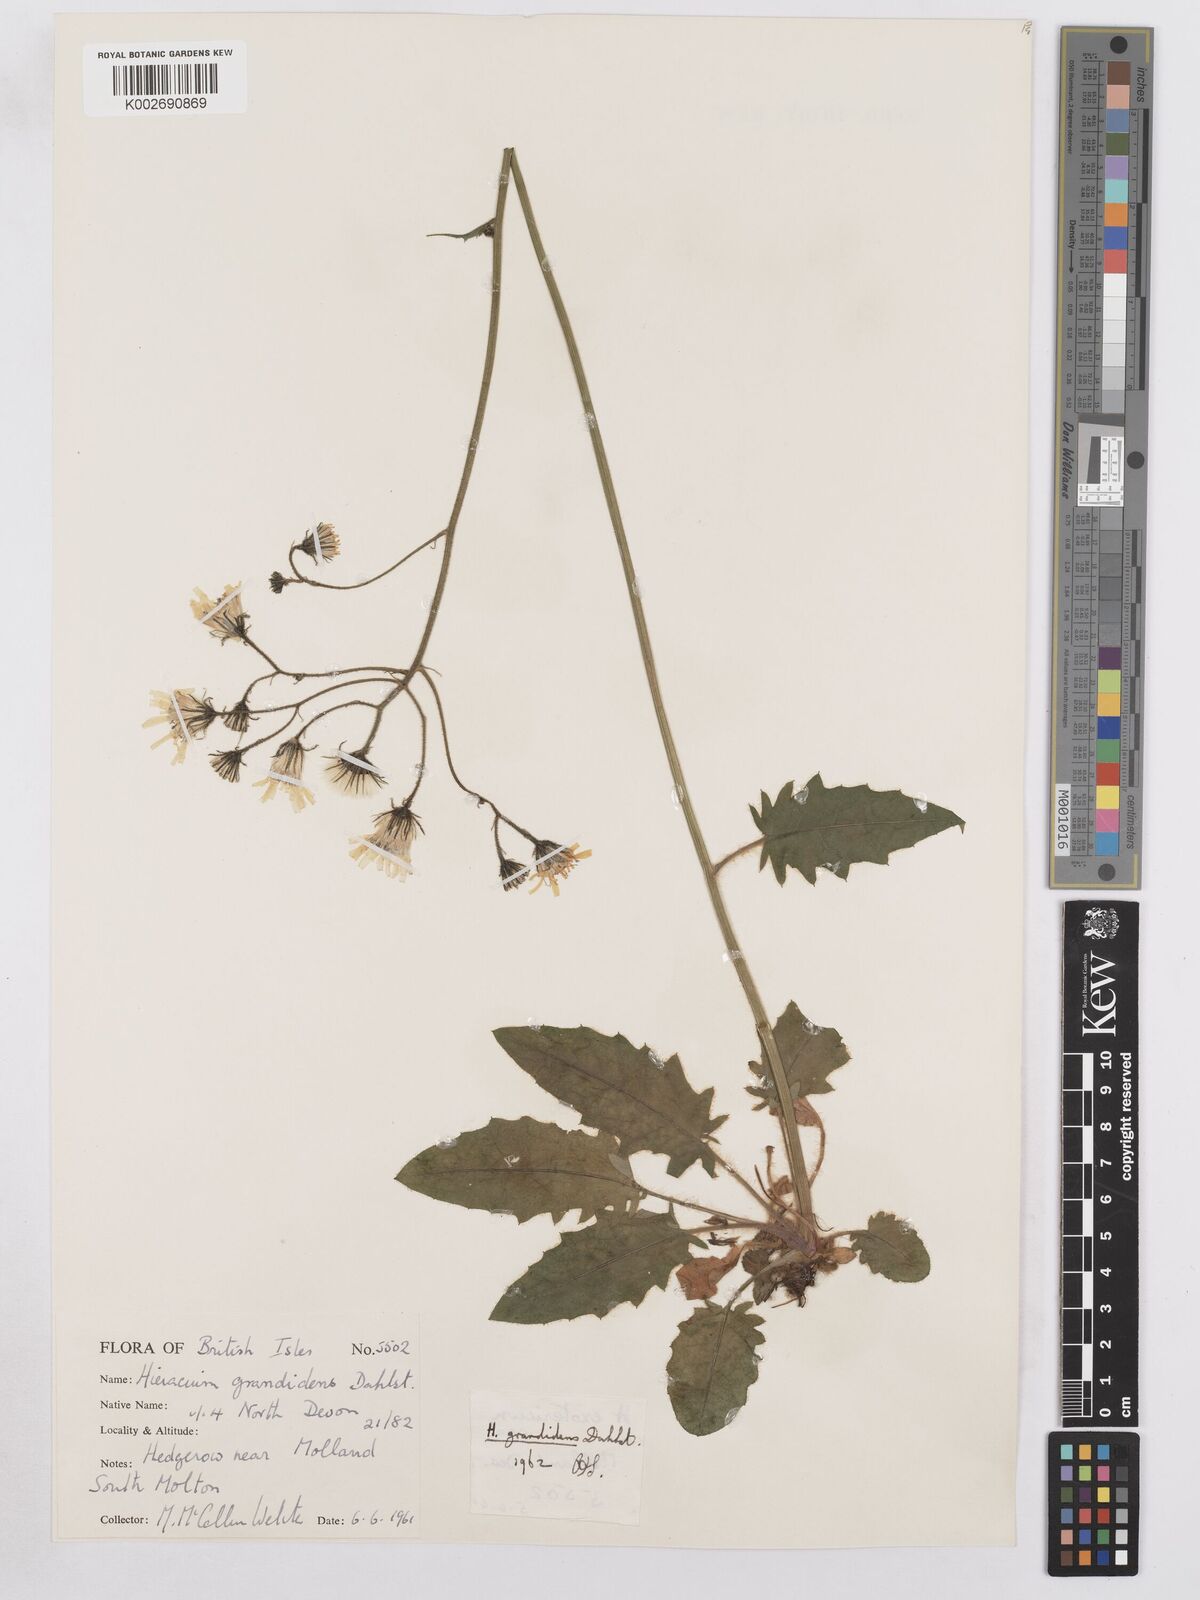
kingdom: Plantae
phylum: Tracheophyta
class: Magnoliopsida
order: Asterales
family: Asteraceae
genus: Hieracium
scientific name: Hieracium murorum
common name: Wall hawkweed
